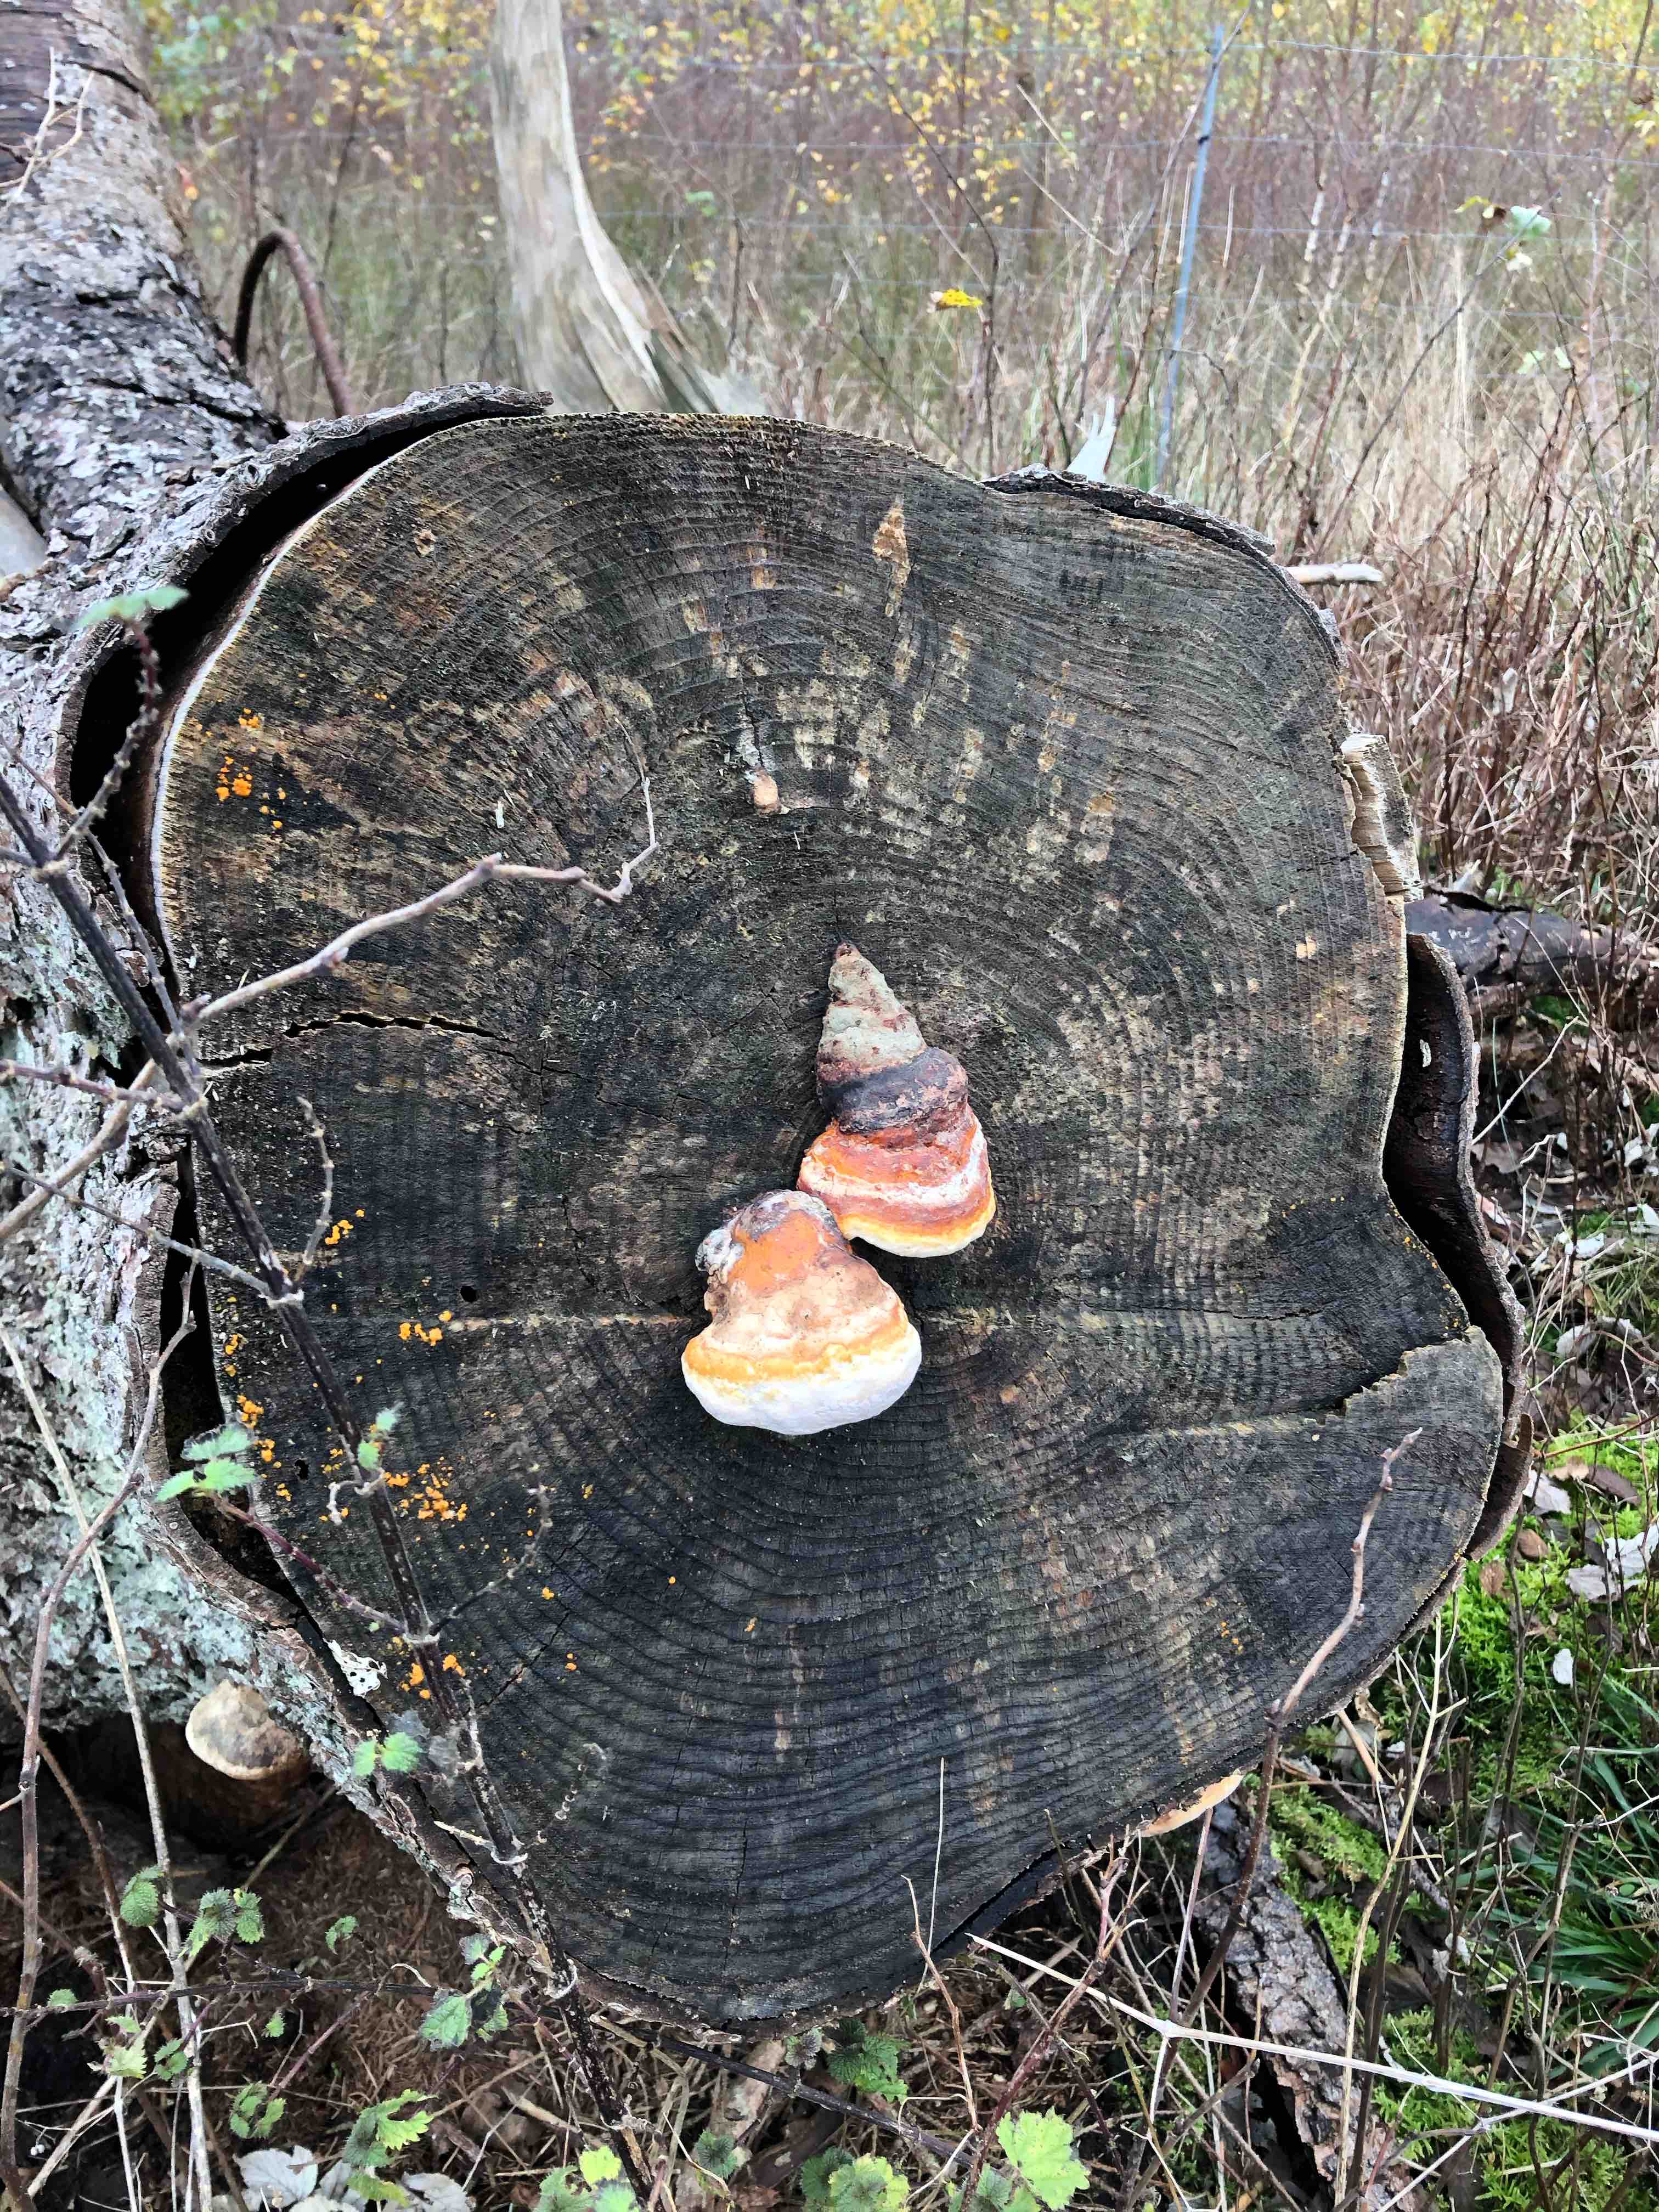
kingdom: Fungi
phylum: Basidiomycota
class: Agaricomycetes
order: Polyporales
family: Fomitopsidaceae
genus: Fomitopsis
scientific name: Fomitopsis pinicola
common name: randbæltet hovporesvamp
